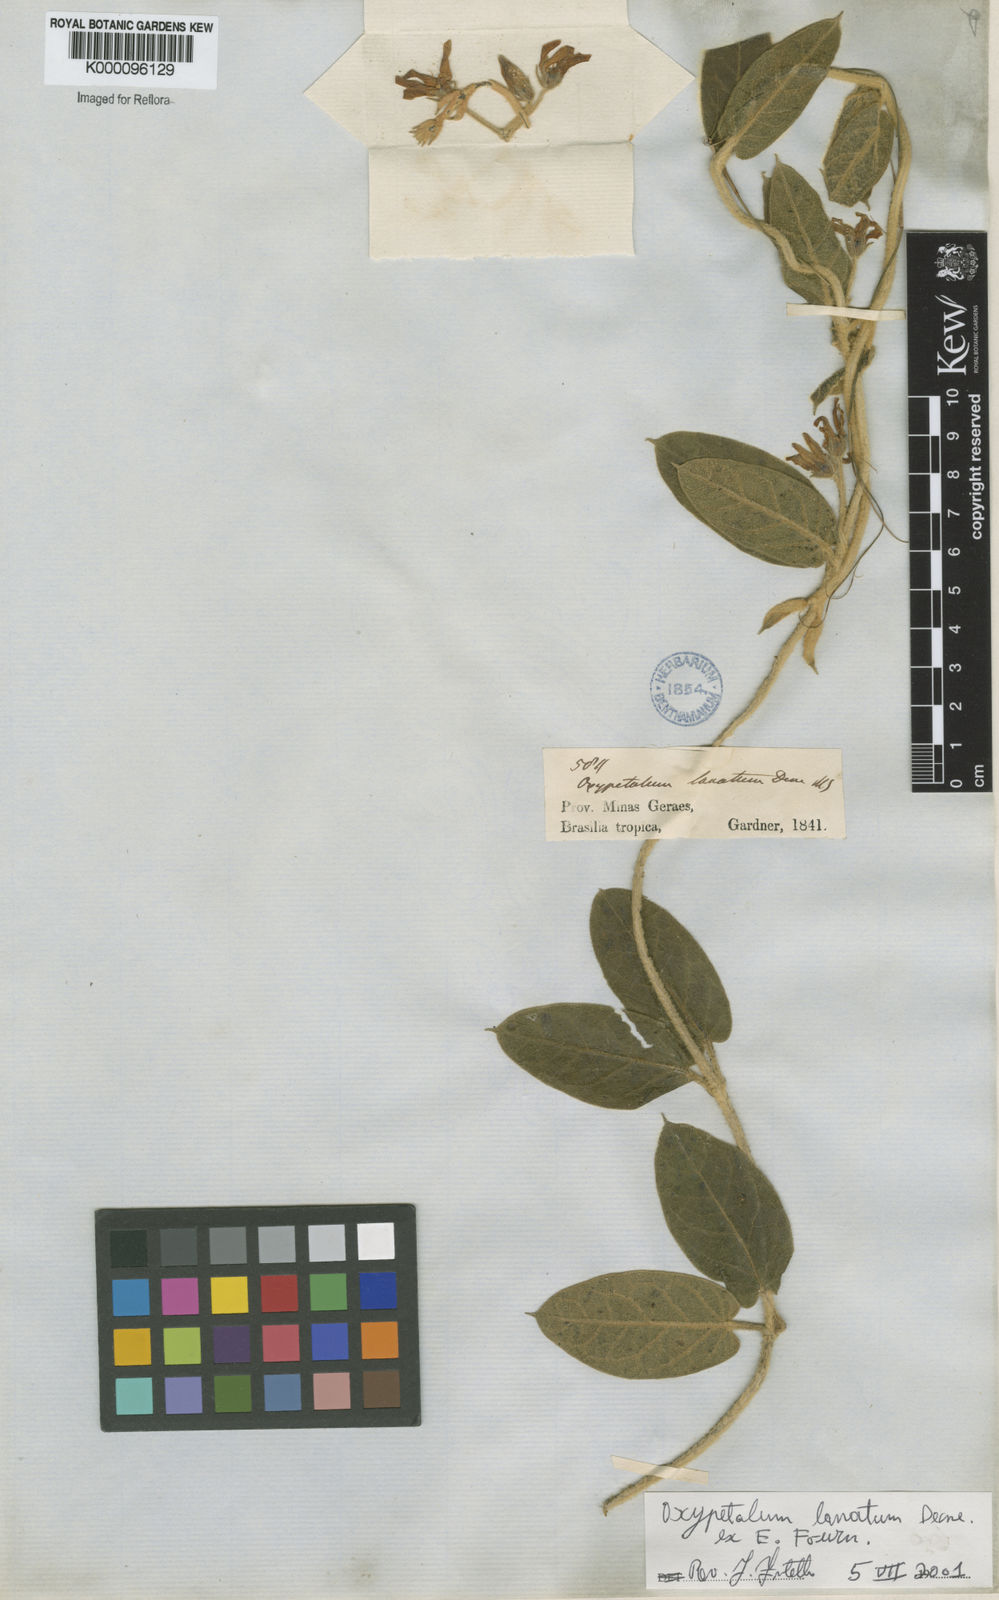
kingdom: Plantae
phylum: Tracheophyta
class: Magnoliopsida
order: Gentianales
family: Apocynaceae
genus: Oxypetalum
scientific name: Oxypetalum lanatum
